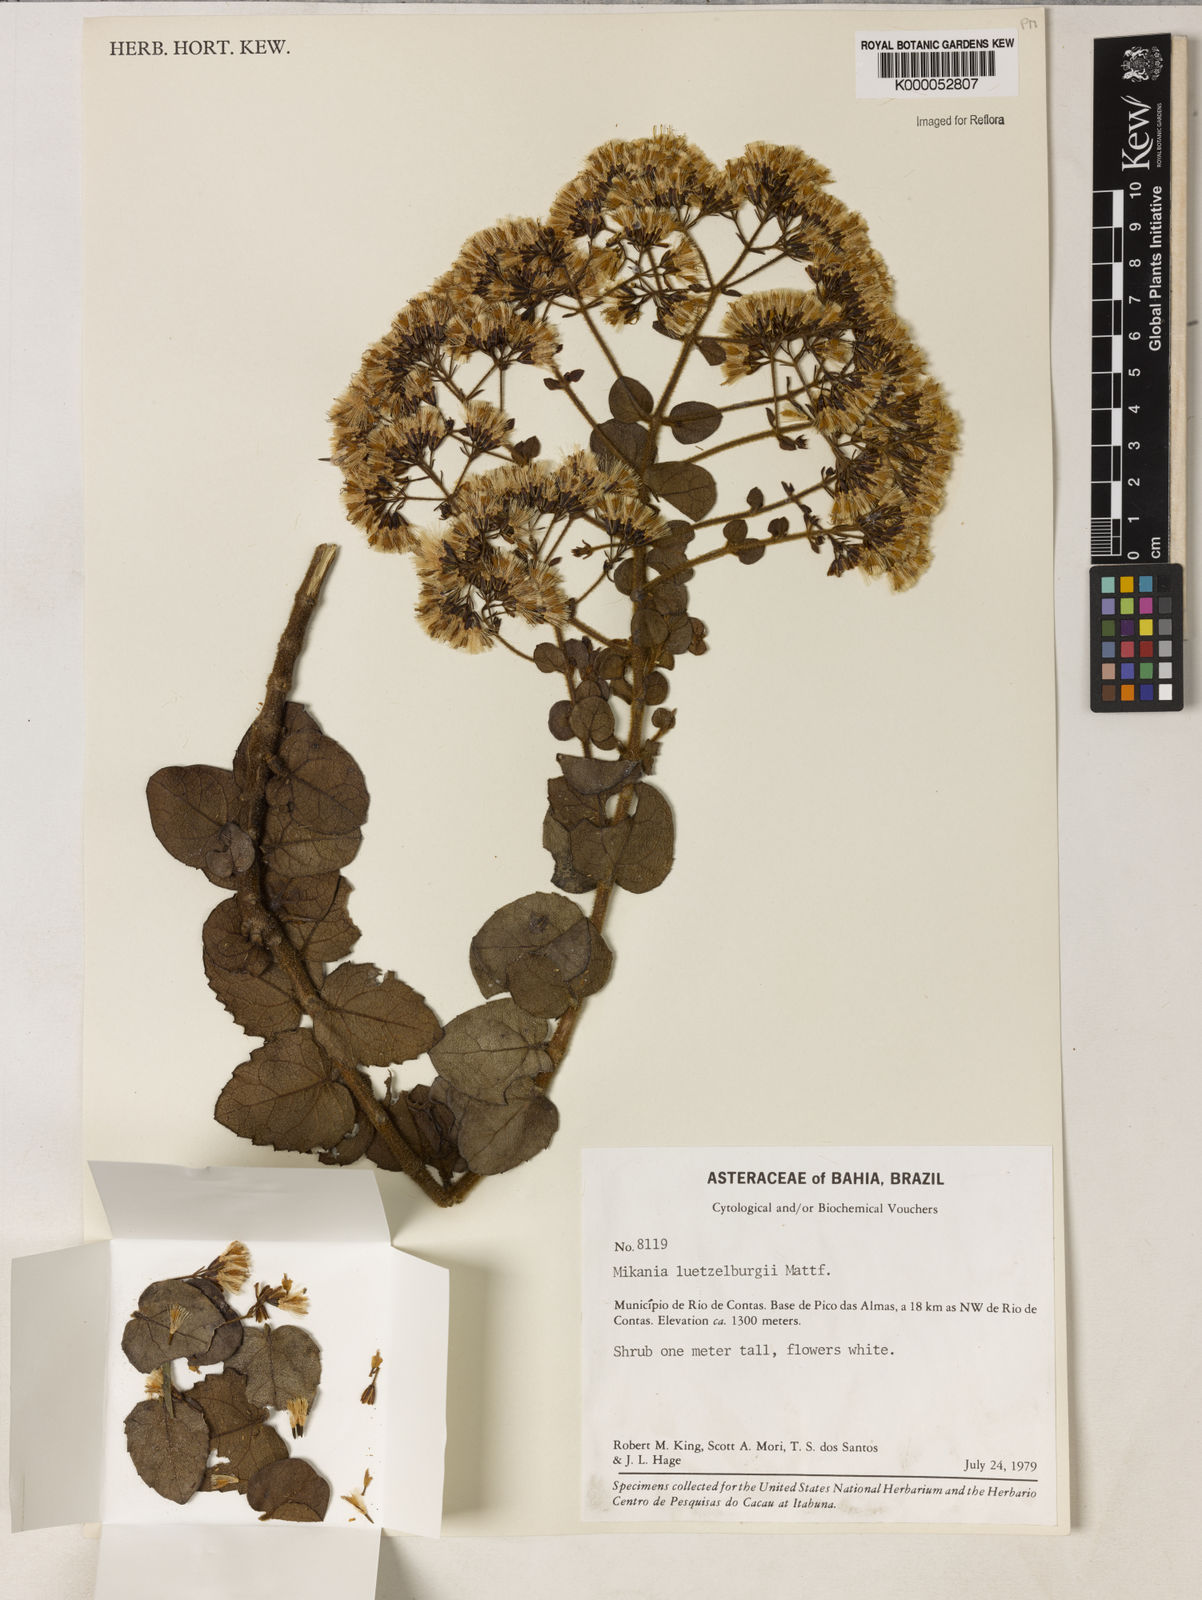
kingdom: Plantae
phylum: Tracheophyta
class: Magnoliopsida
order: Asterales
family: Asteraceae
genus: Mikania
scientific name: Mikania luetzelburgii
